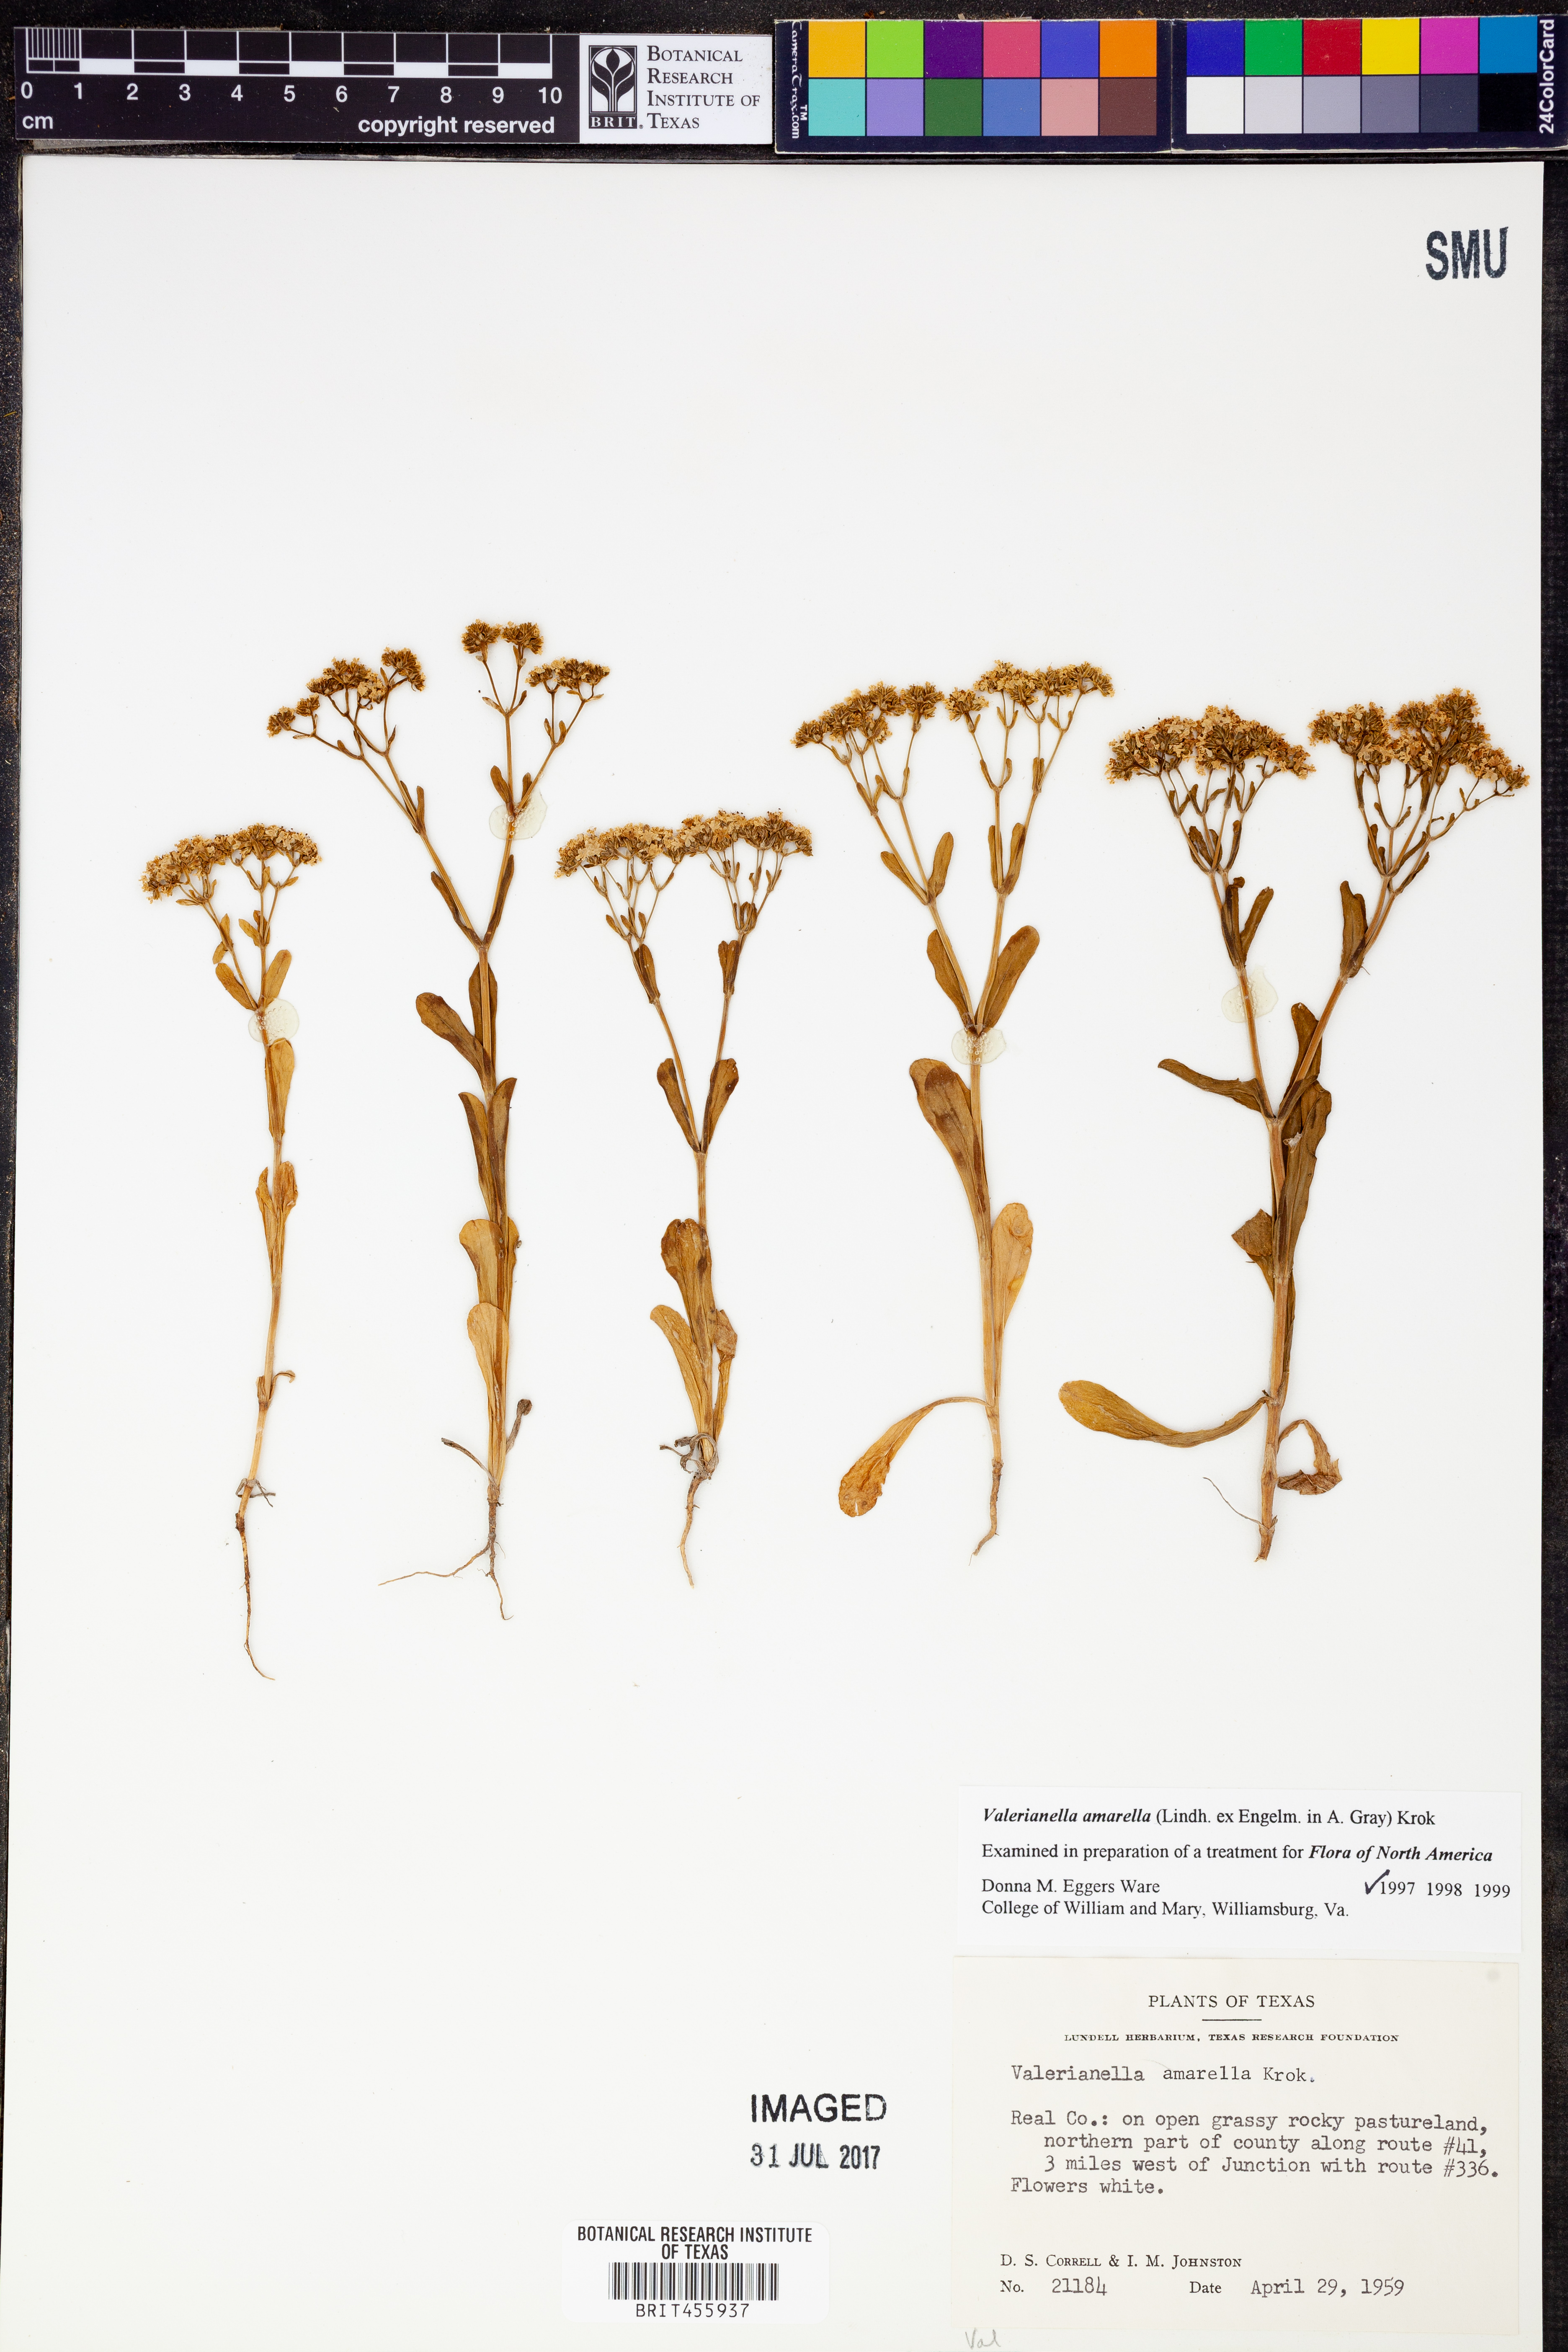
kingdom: Plantae
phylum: Tracheophyta
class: Magnoliopsida
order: Dipsacales
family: Caprifoliaceae
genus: Valerianella
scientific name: Valerianella amarella
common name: Hariy cornsalad
